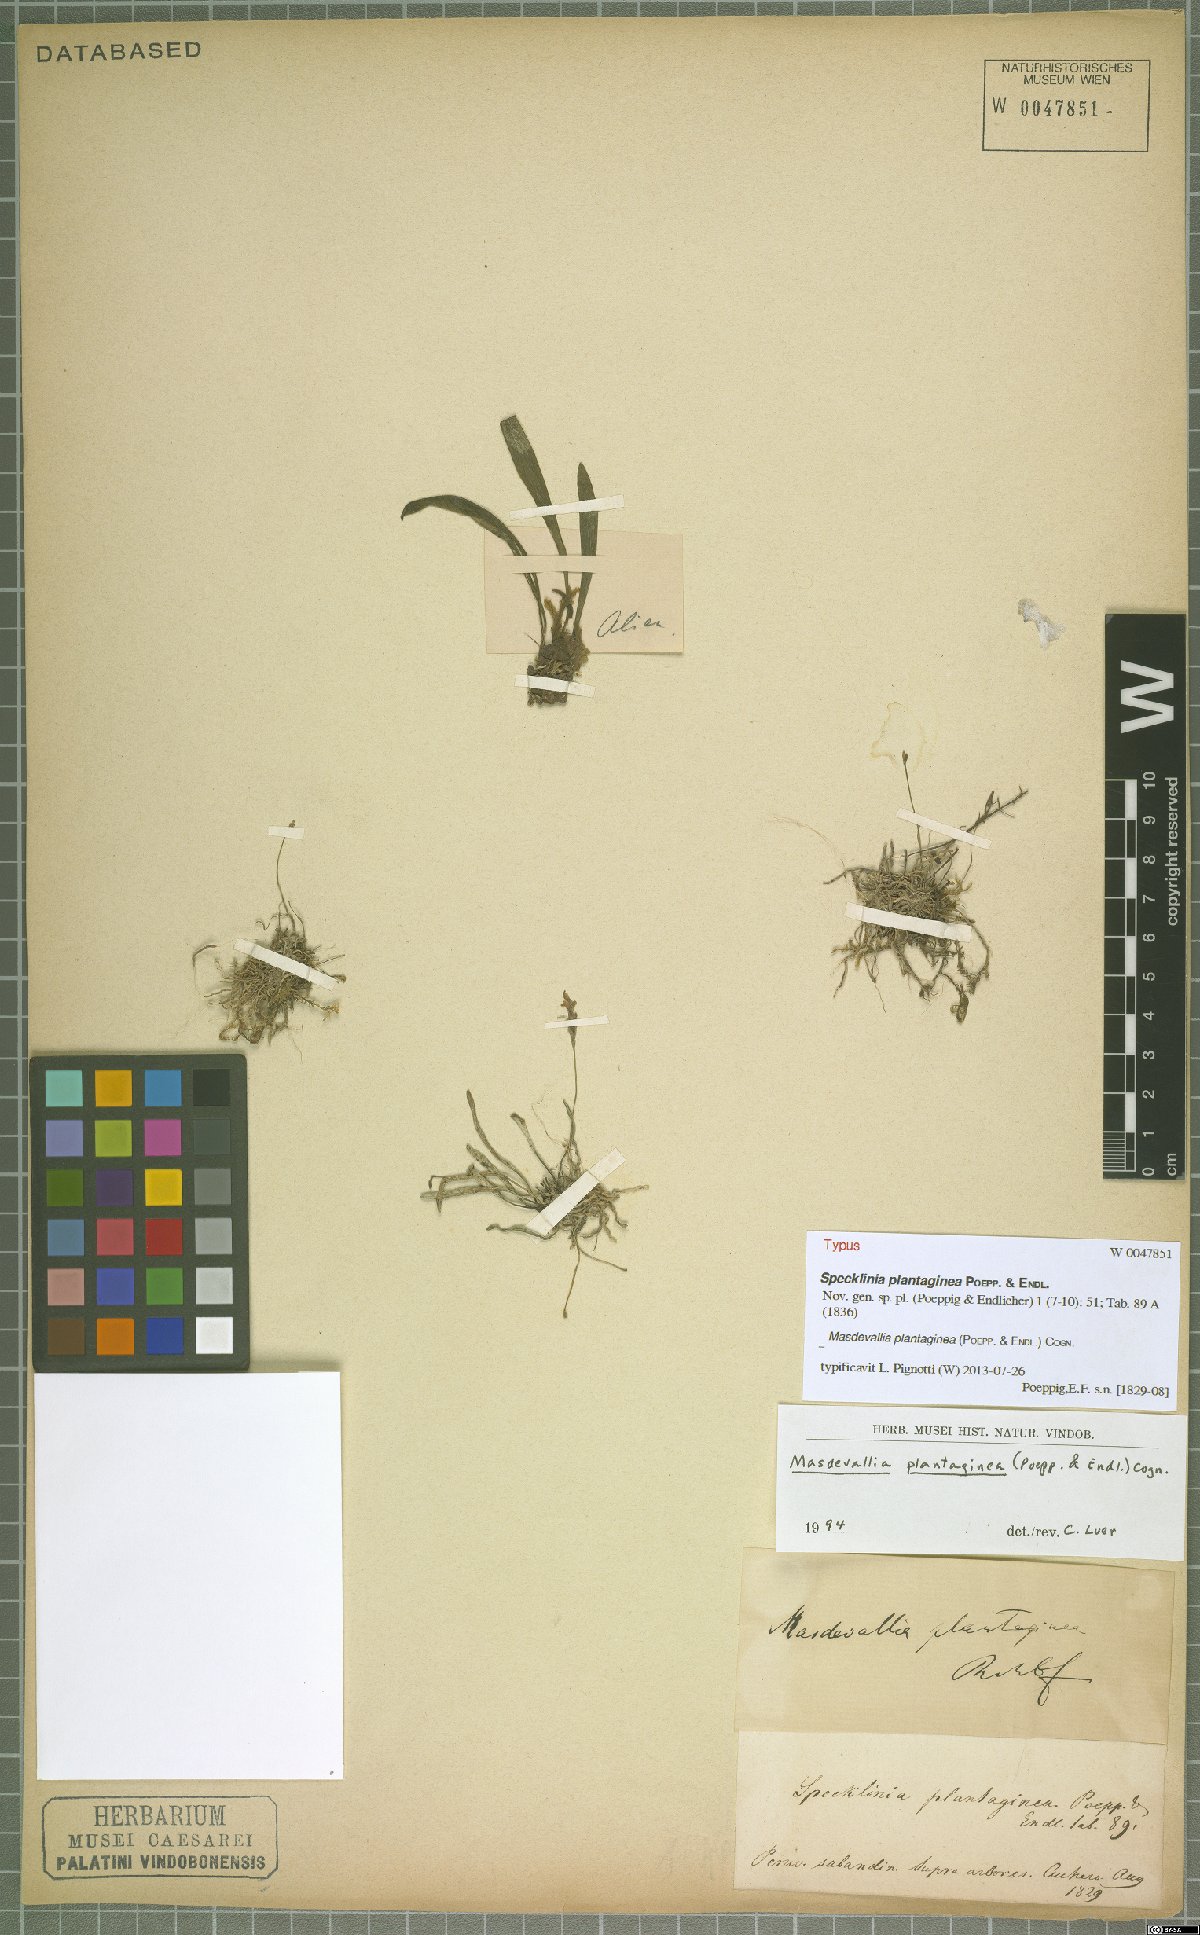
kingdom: Plantae
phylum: Tracheophyta
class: Liliopsida
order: Asparagales
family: Orchidaceae
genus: Masdevallia
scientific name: Masdevallia plantaginea
